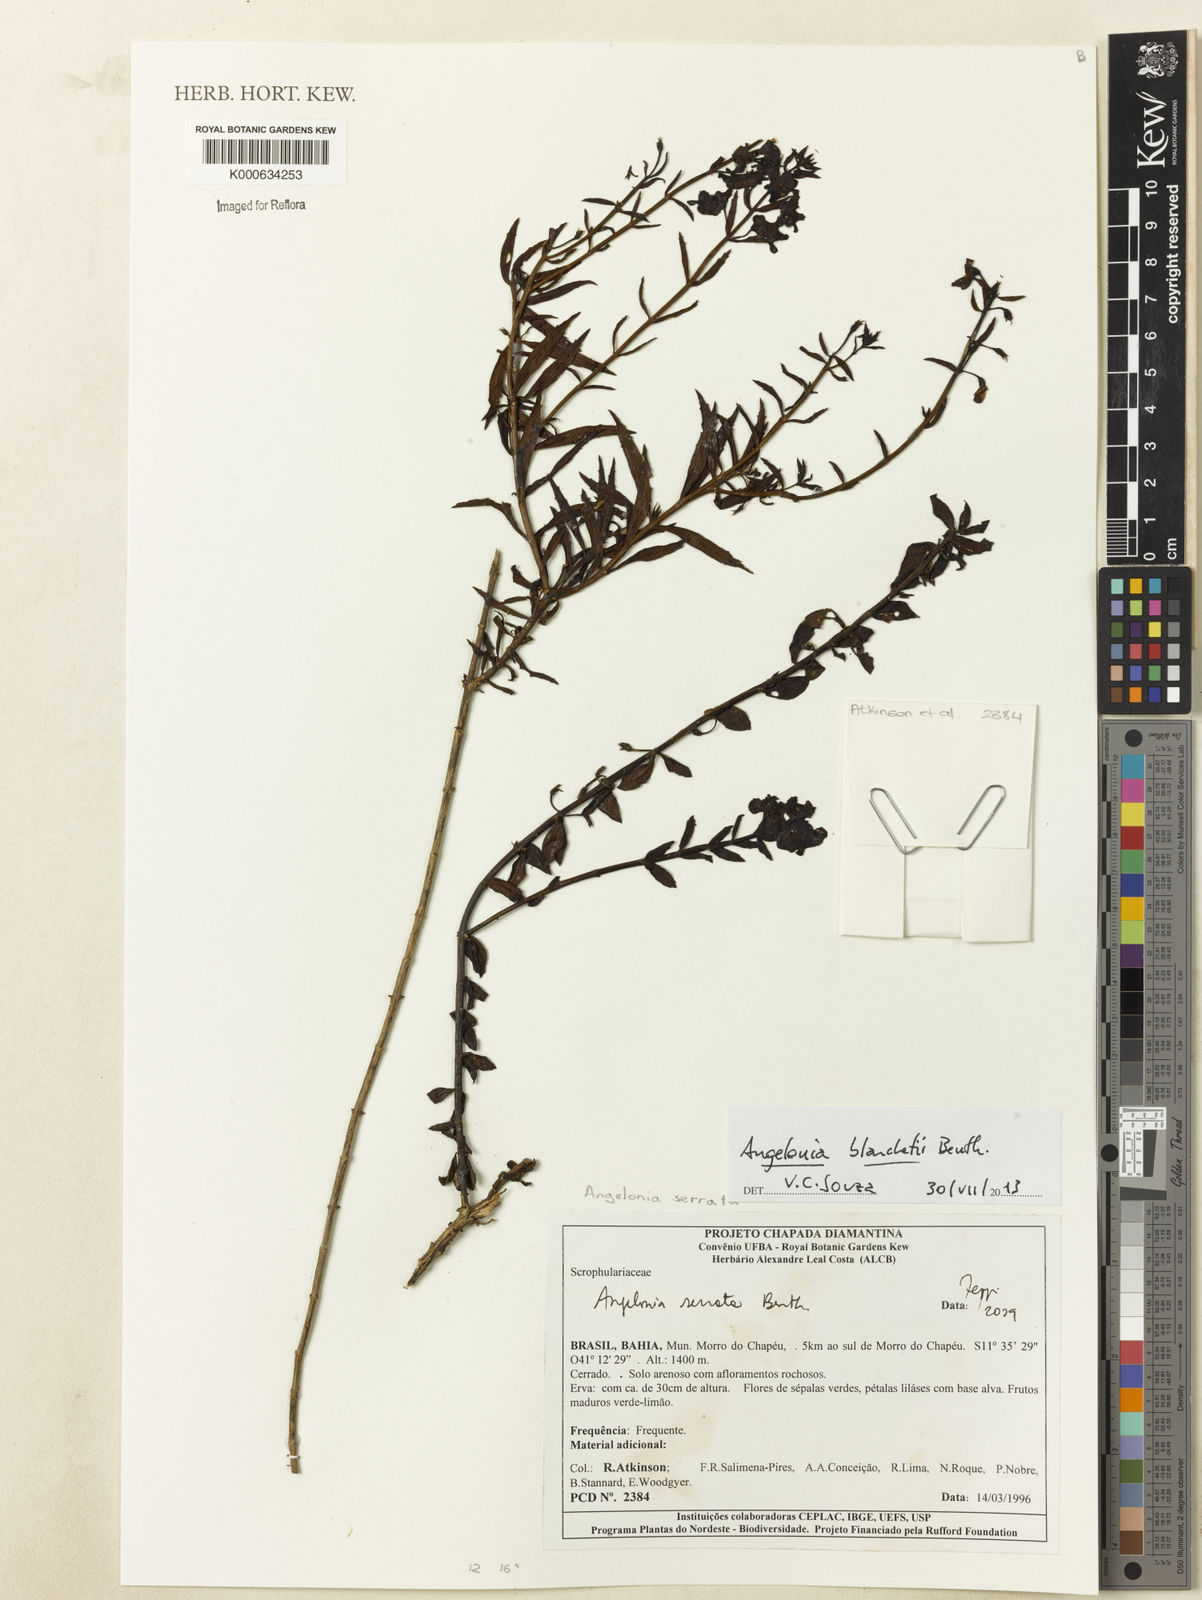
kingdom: Plantae
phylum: Tracheophyta
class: Magnoliopsida
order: Lamiales
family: Plantaginaceae
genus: Angelonia
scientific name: Angelonia arguta
